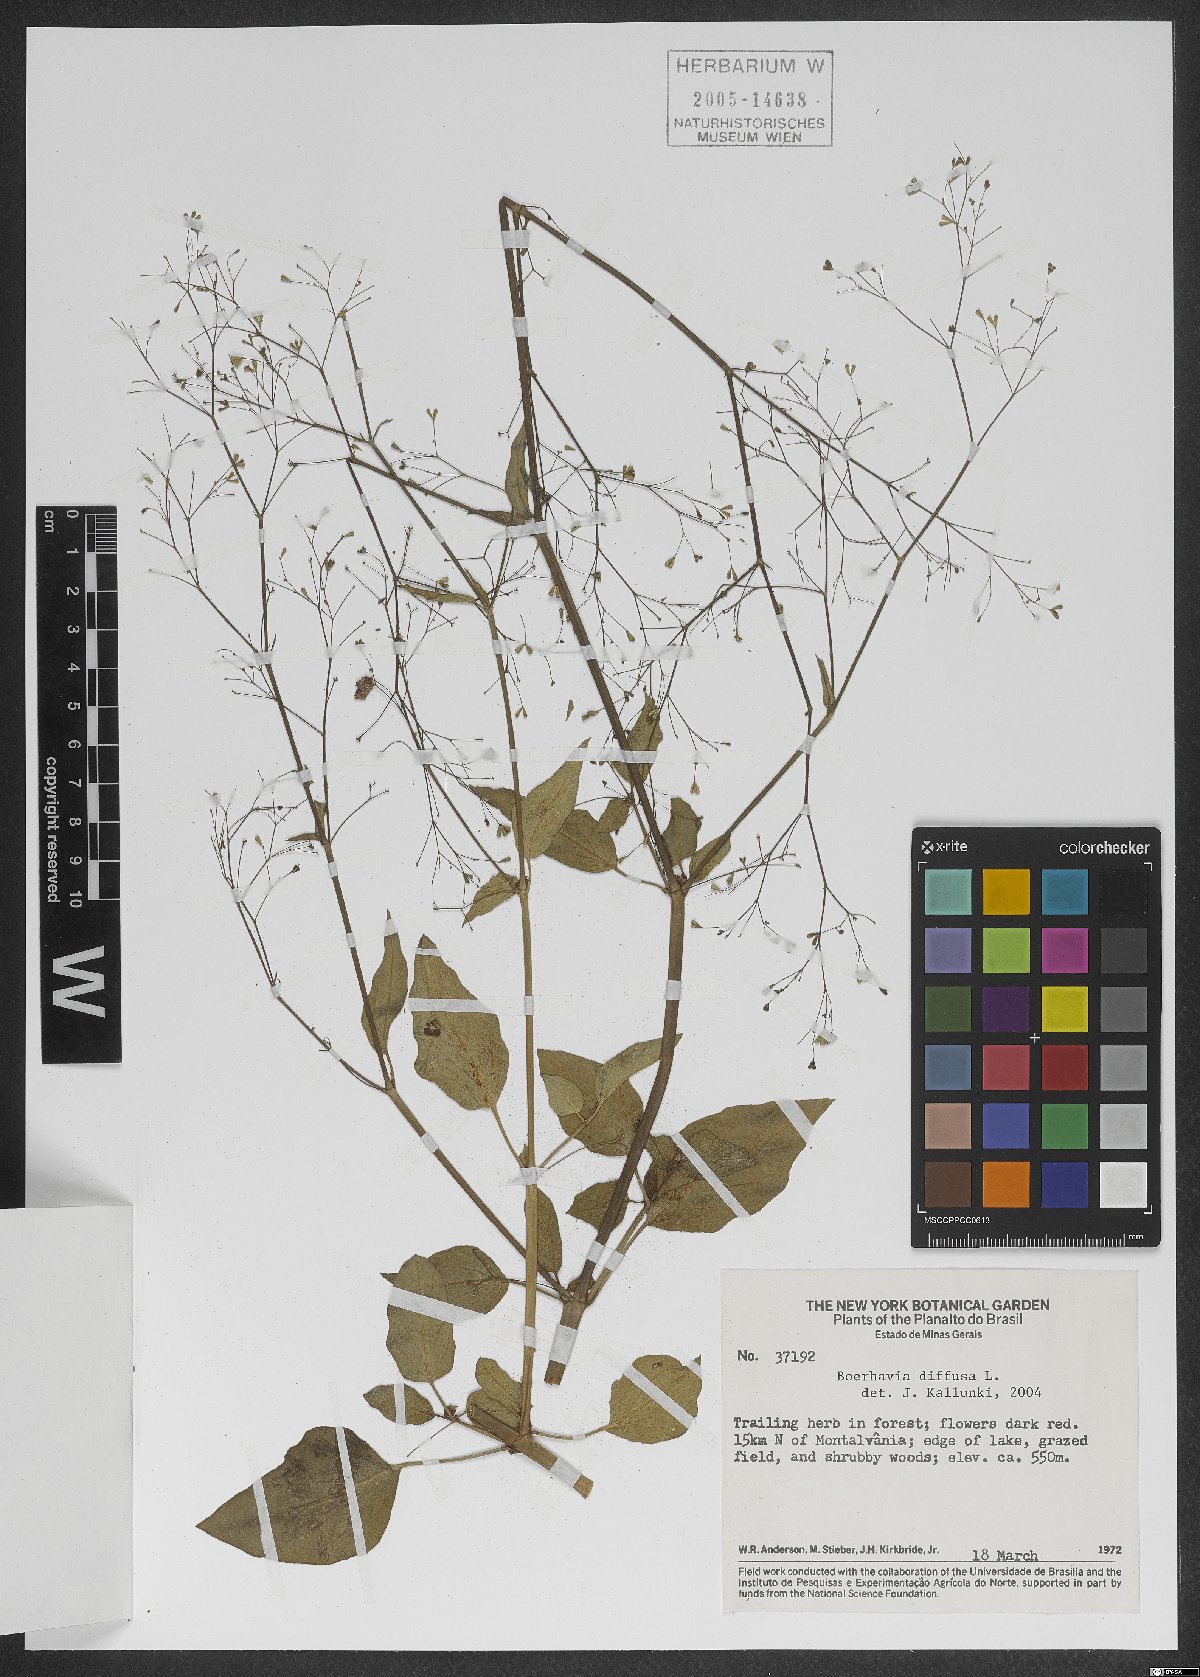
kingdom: Plantae
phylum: Tracheophyta
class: Magnoliopsida
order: Caryophyllales
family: Nyctaginaceae
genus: Boerhavia
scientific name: Boerhavia diffusa
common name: Red spiderling
